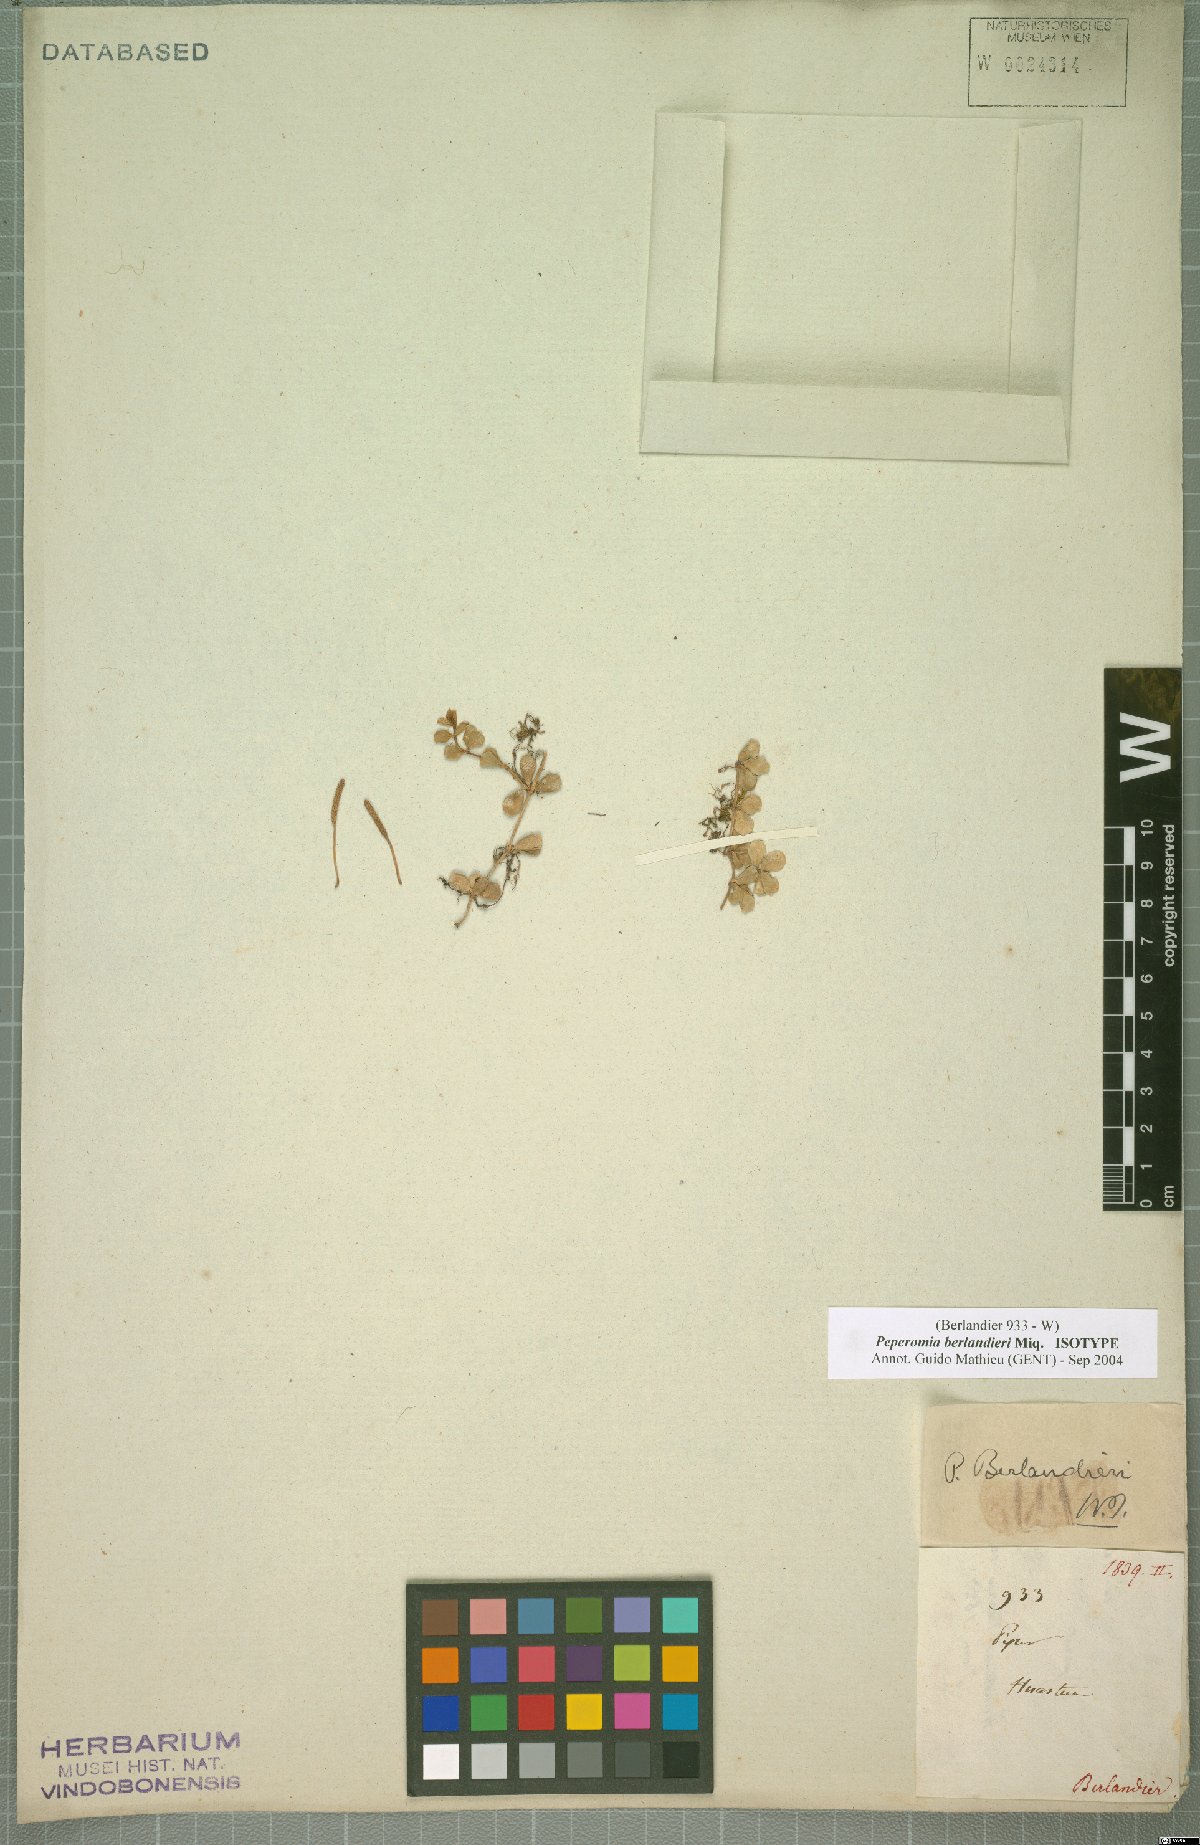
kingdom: Plantae
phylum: Tracheophyta
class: Magnoliopsida
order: Piperales
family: Piperaceae
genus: Peperomia
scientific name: Peperomia berlandieri
